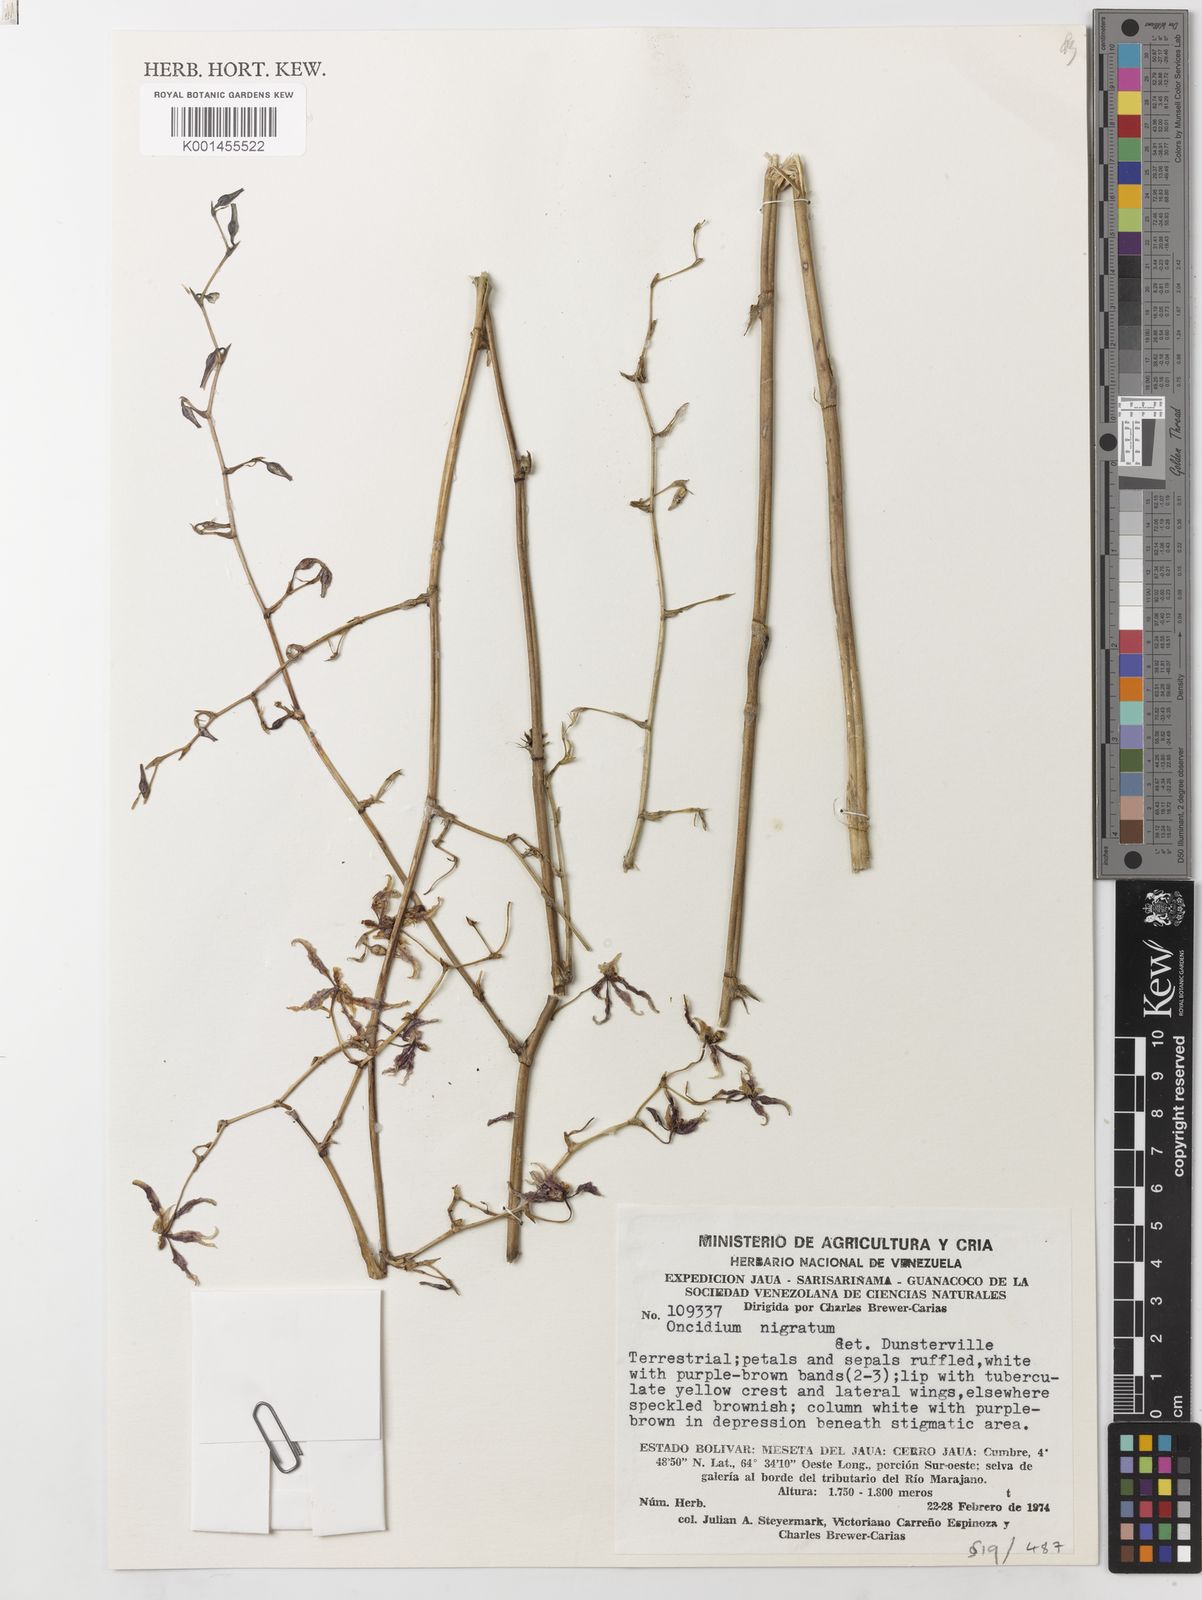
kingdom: Plantae
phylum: Tracheophyta
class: Liliopsida
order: Asparagales
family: Orchidaceae
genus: Oncidium
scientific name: Oncidium nigratum
